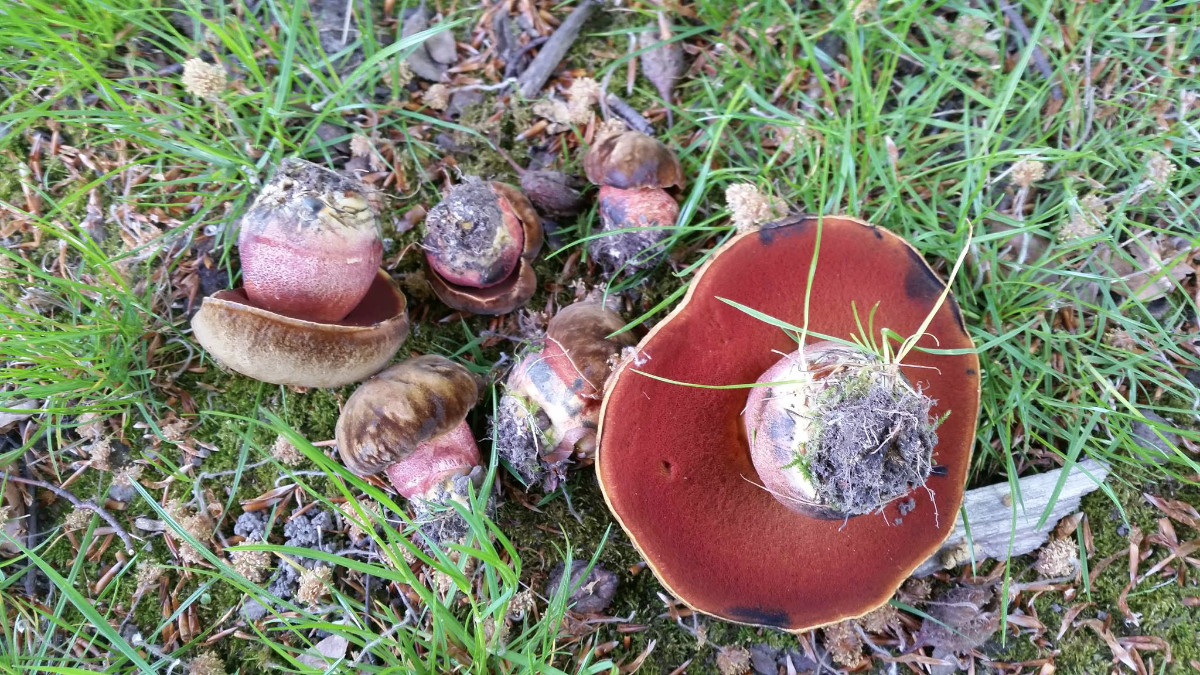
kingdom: Fungi
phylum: Basidiomycota
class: Agaricomycetes
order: Boletales
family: Boletaceae
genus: Neoboletus
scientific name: Neoboletus erythropus
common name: punktstokket indigorørhat
